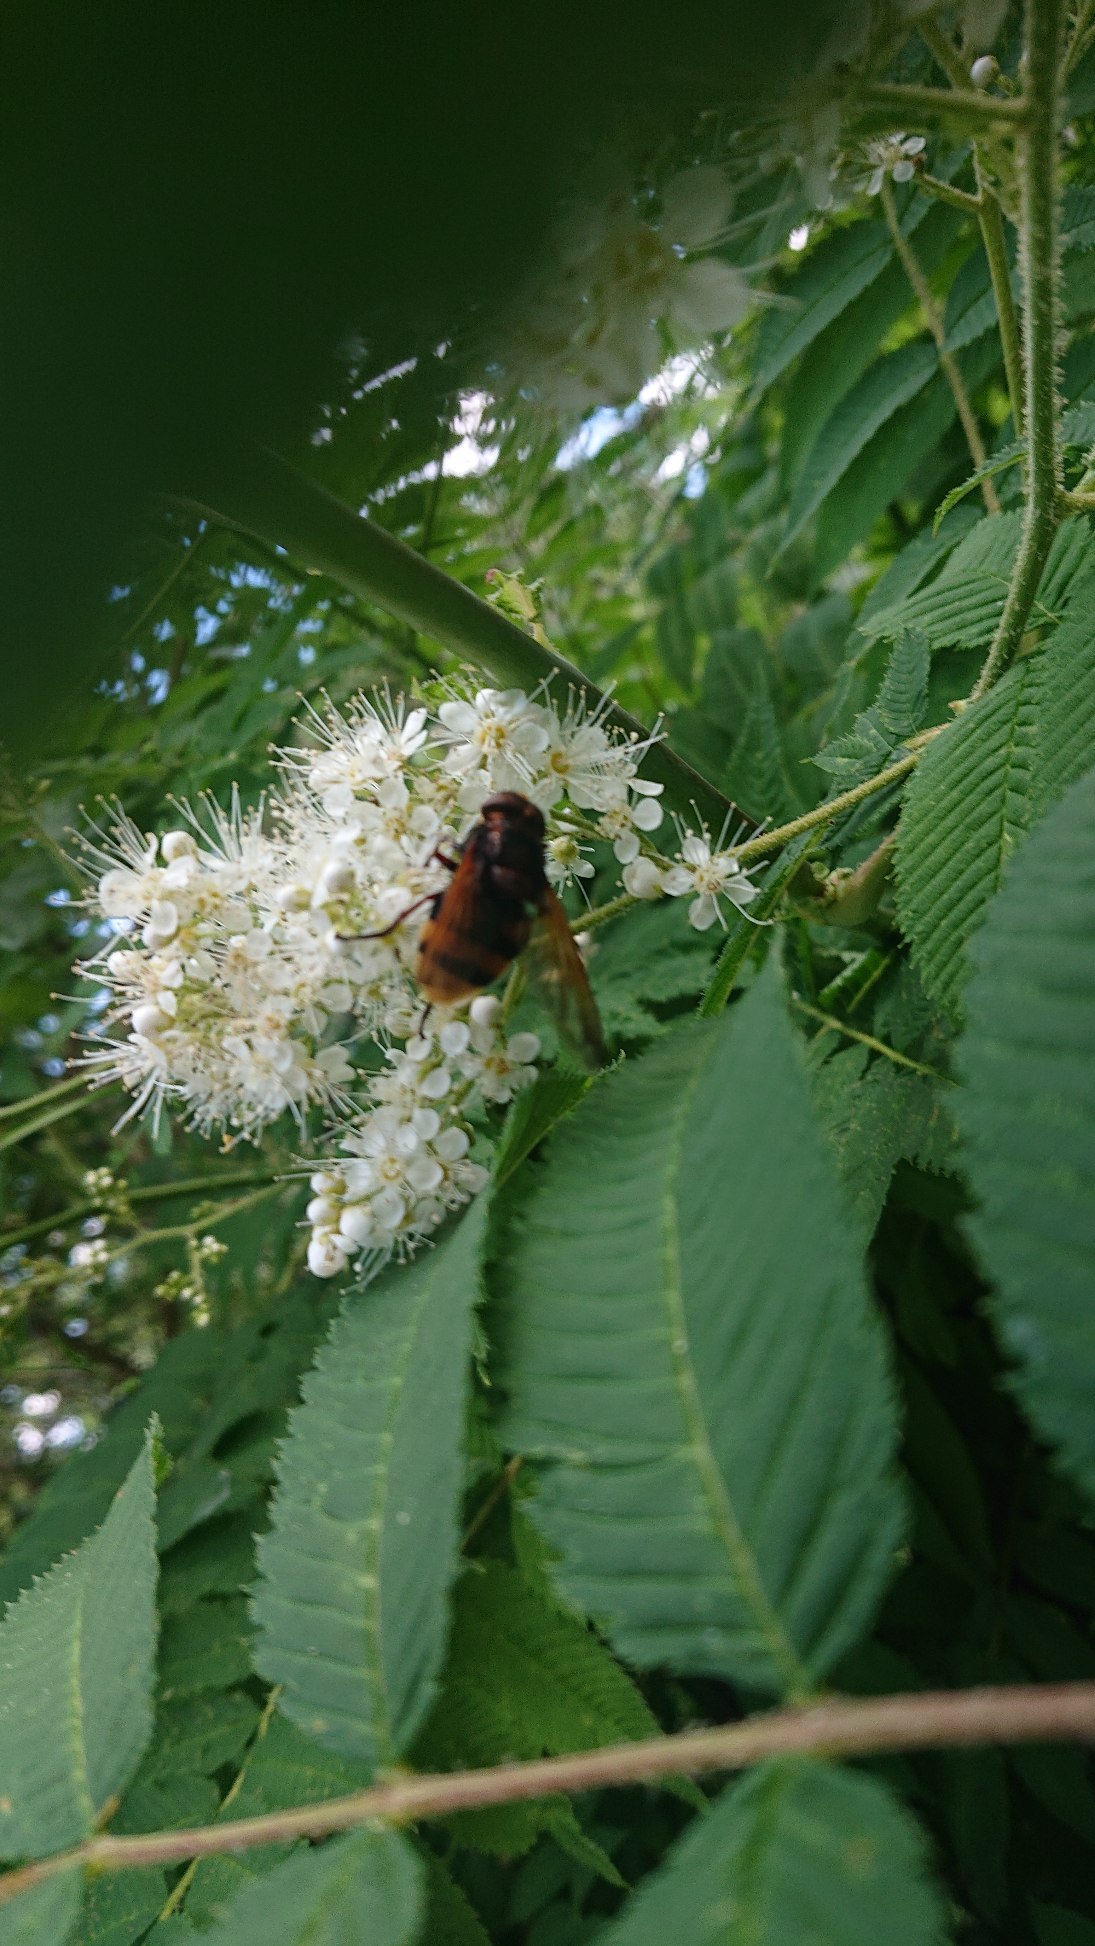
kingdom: Animalia
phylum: Arthropoda
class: Insecta
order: Diptera
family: Syrphidae
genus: Volucella
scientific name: Volucella zonaria
